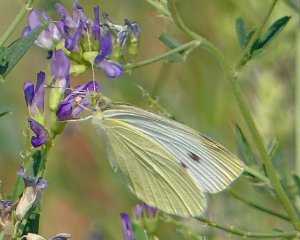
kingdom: Animalia
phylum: Arthropoda
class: Insecta
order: Lepidoptera
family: Pieridae
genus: Pieris
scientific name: Pieris rapae
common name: Cabbage White
